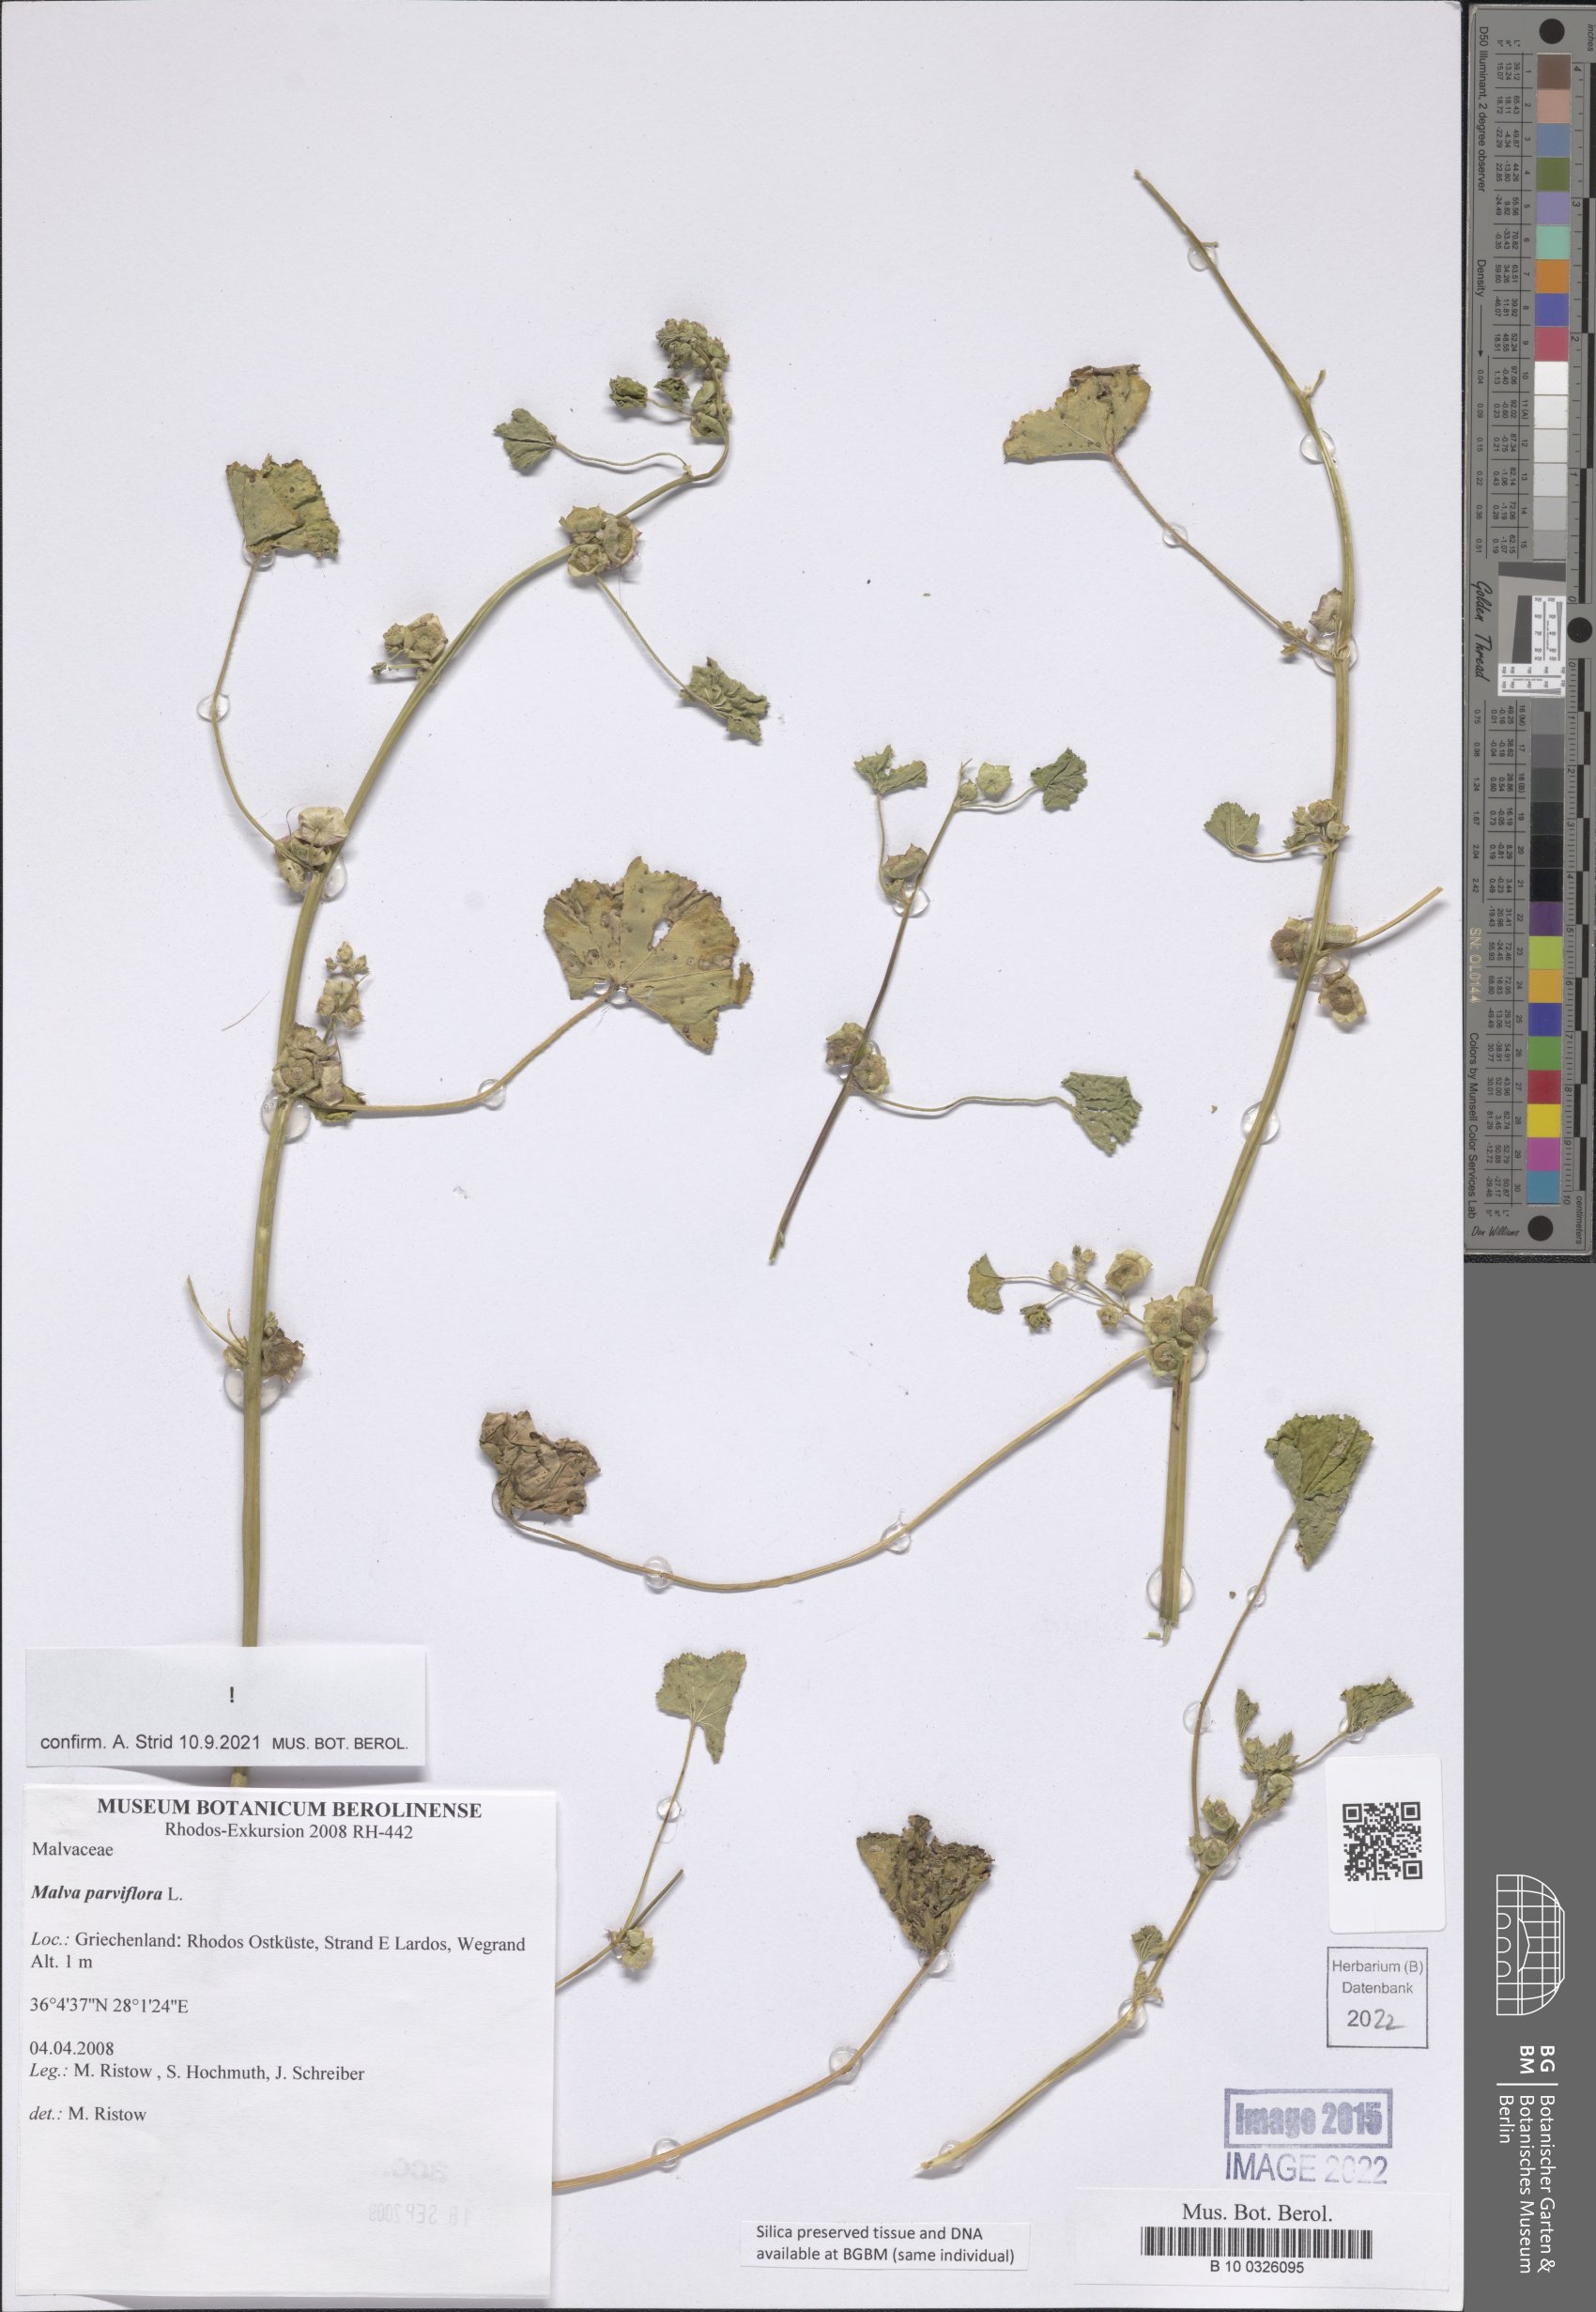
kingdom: Plantae
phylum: Tracheophyta
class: Magnoliopsida
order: Malvales
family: Malvaceae
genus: Malva
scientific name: Malva parviflora
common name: Least mallow
